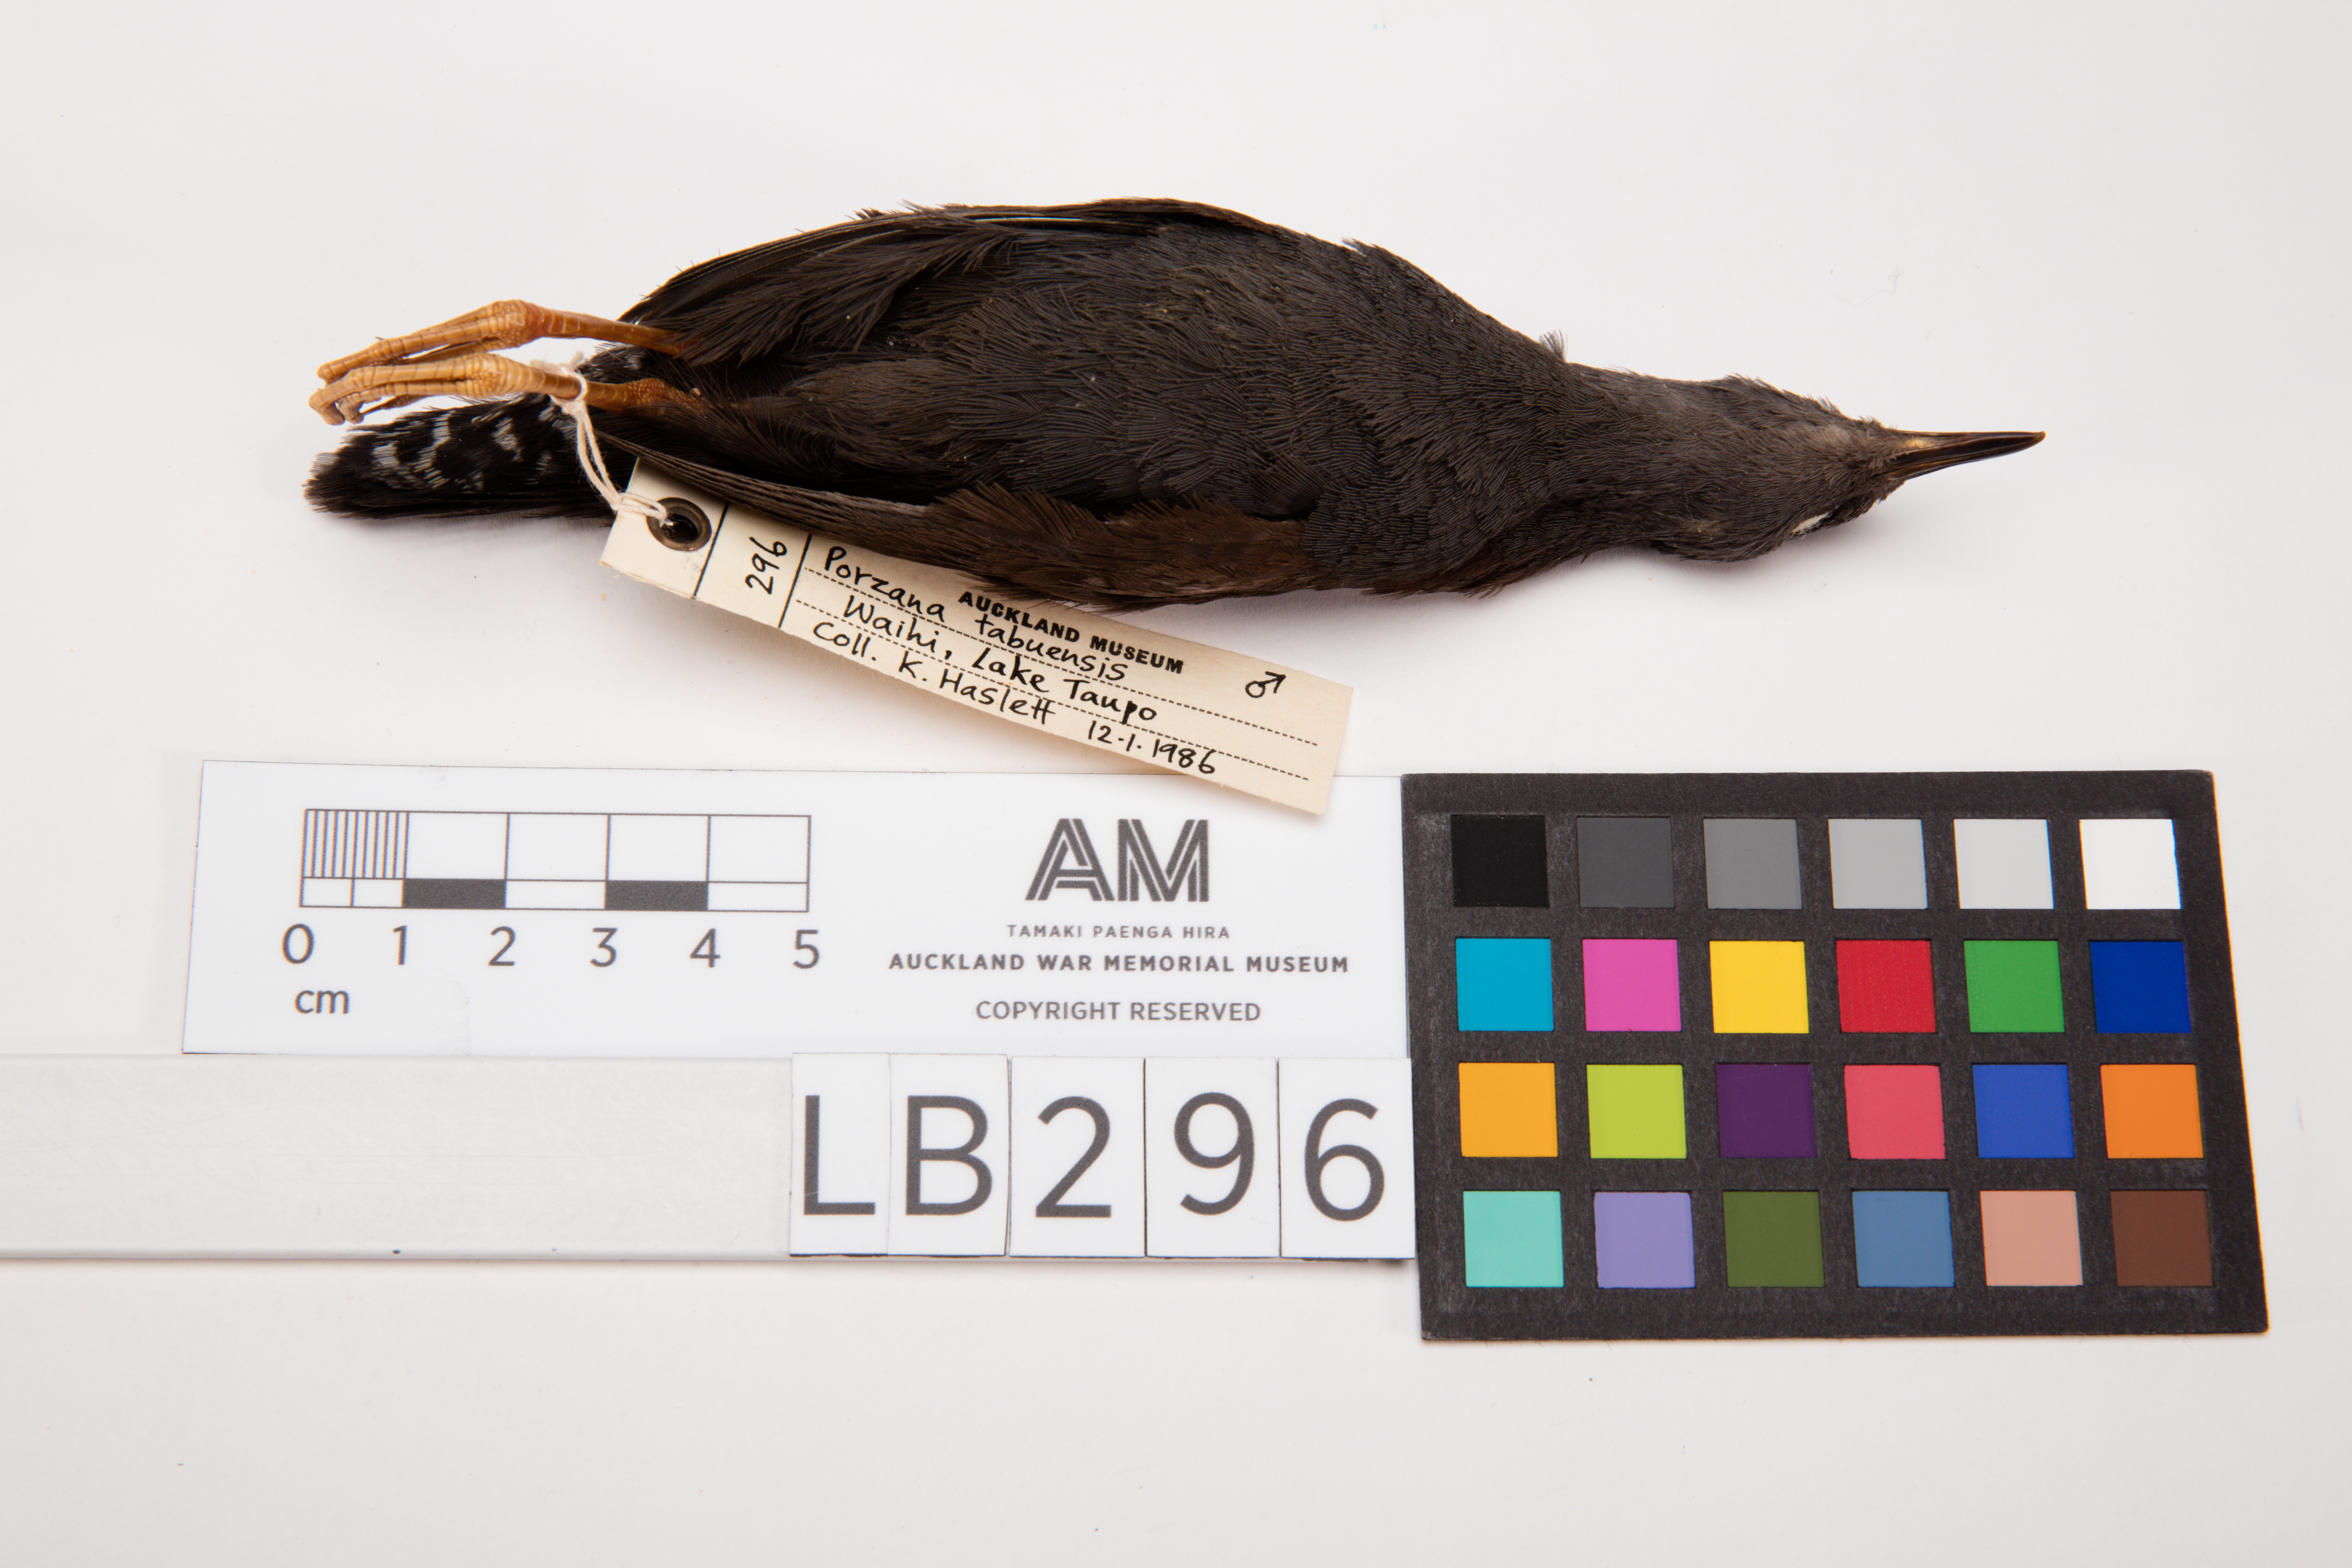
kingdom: Animalia
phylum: Chordata
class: Aves
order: Gruiformes
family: Rallidae
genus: Porzana
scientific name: Porzana tabuensis
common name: Spotless crake
